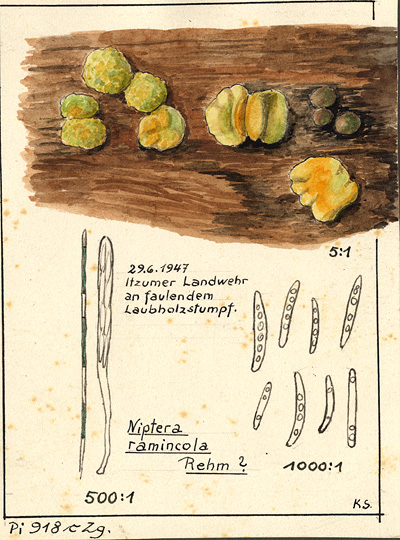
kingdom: Fungi
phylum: Ascomycota
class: Leotiomycetes
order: Helotiales
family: Mollisiaceae
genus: Niptera
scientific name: Niptera ramincola
